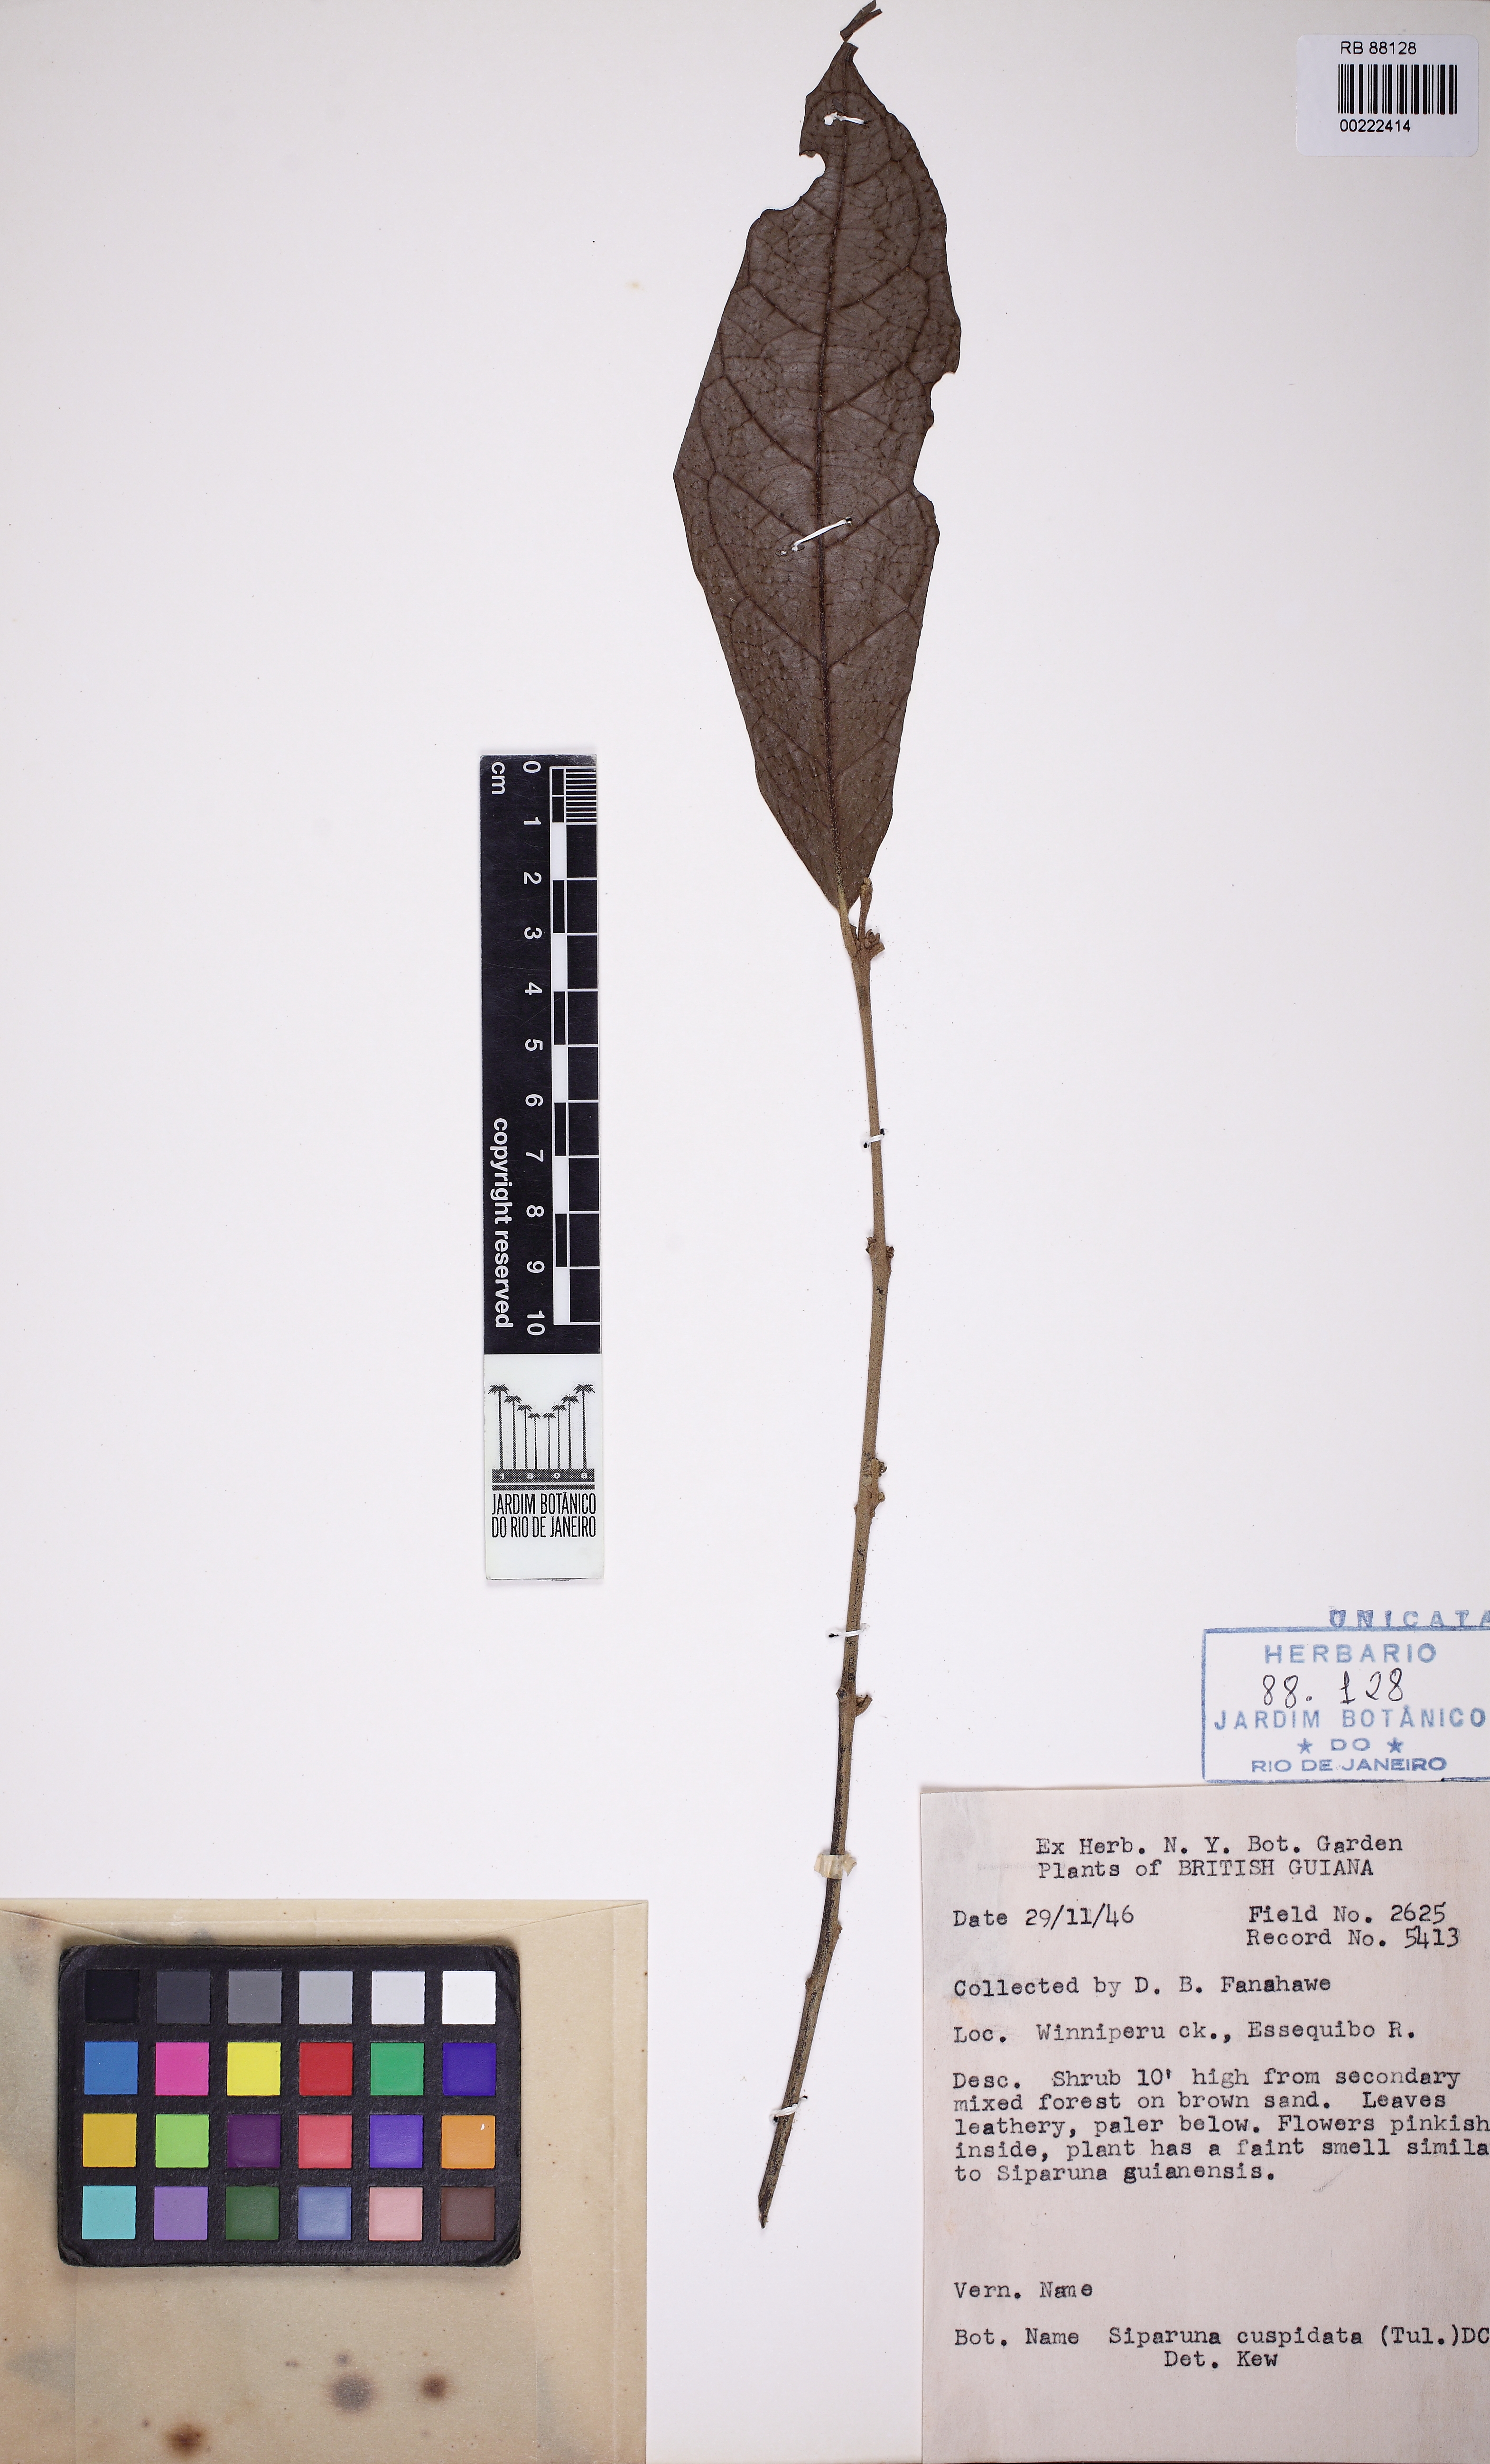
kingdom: Plantae
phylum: Tracheophyta
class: Magnoliopsida
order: Laurales
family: Siparunaceae
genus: Siparuna
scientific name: Siparuna cuspidata
